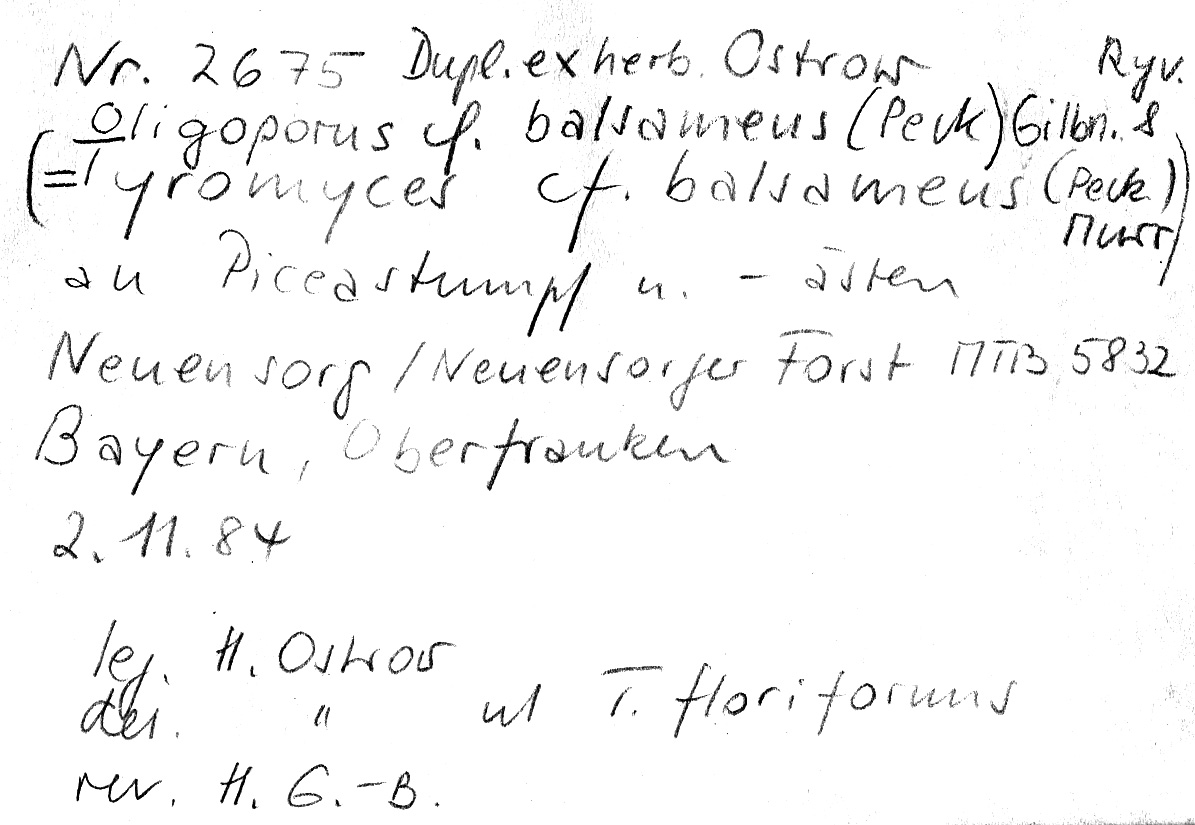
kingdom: Plantae
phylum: Tracheophyta
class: Pinopsida
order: Pinales
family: Pinaceae
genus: Picea
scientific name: Picea
